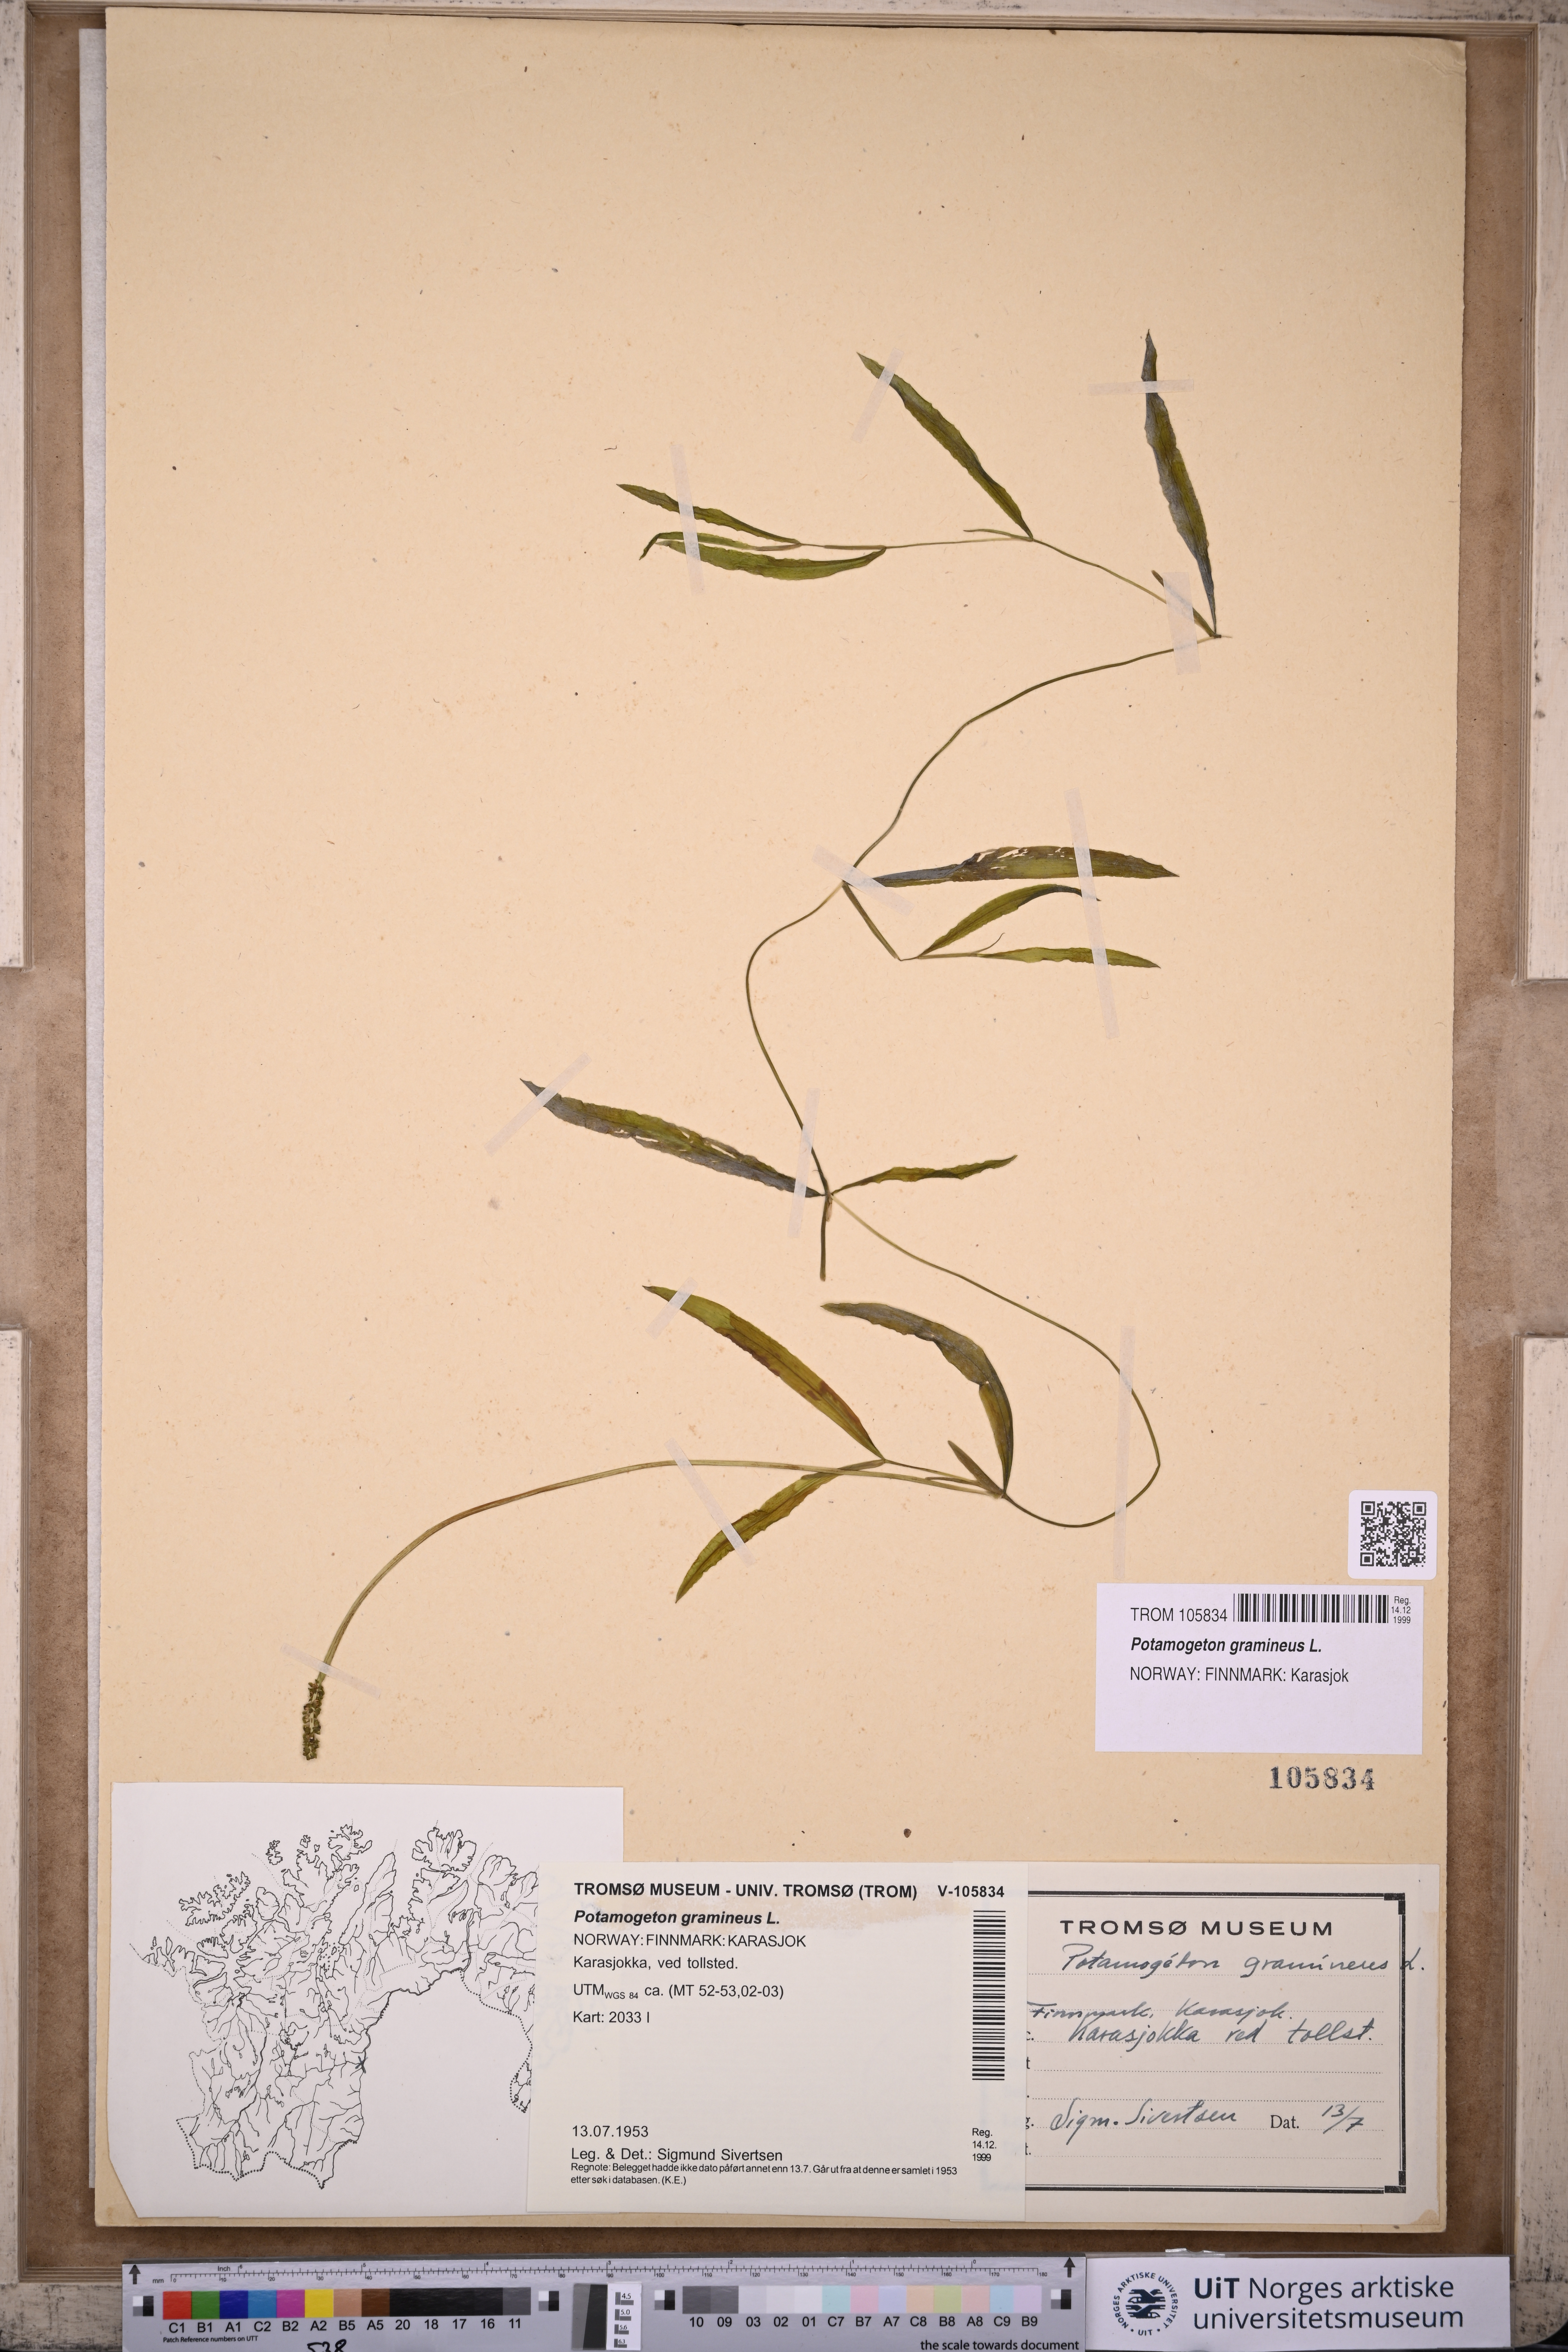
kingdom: Plantae
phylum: Tracheophyta
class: Liliopsida
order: Alismatales
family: Potamogetonaceae
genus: Potamogeton
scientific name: Potamogeton gramineus
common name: Various-leaved pondweed
